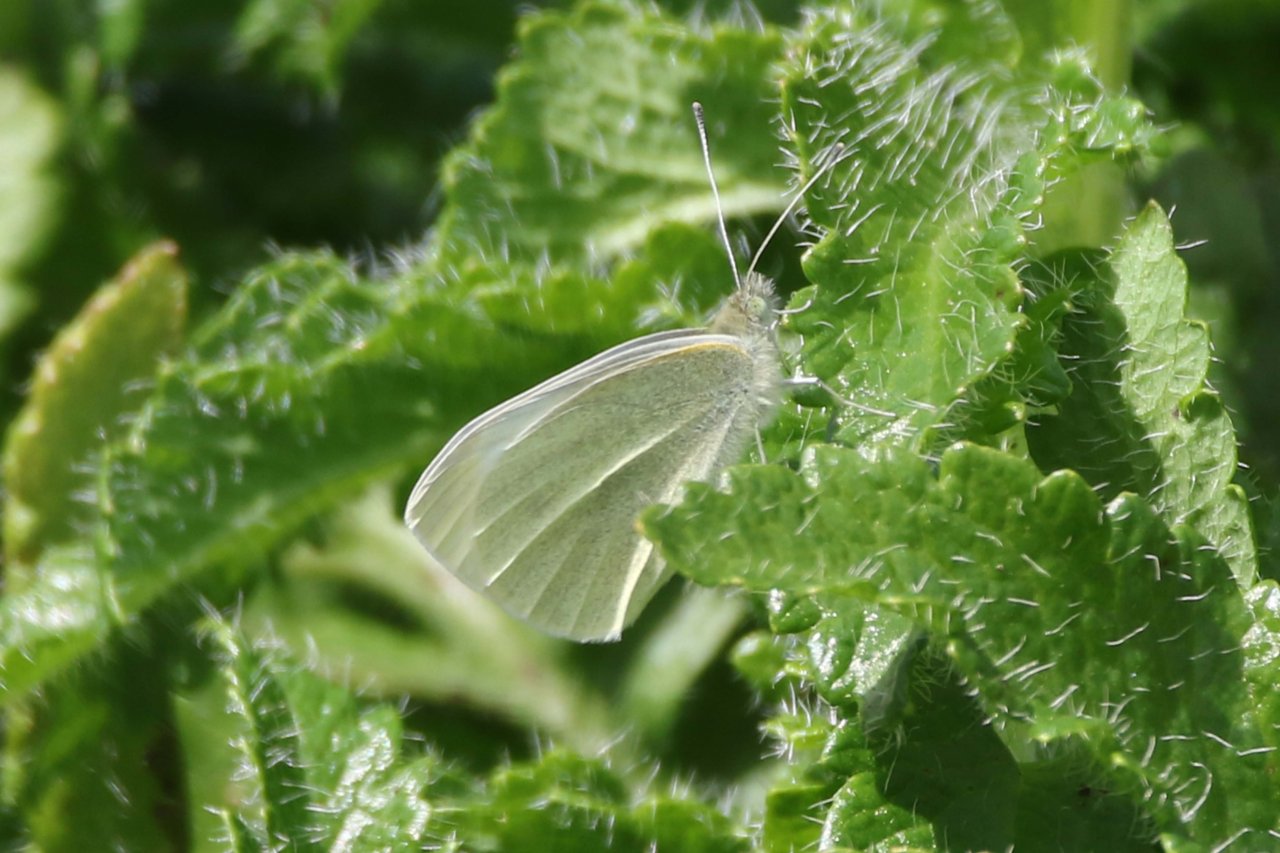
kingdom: Animalia
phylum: Arthropoda
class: Insecta
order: Lepidoptera
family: Pieridae
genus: Pieris
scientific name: Pieris rapae
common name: Cabbage White
